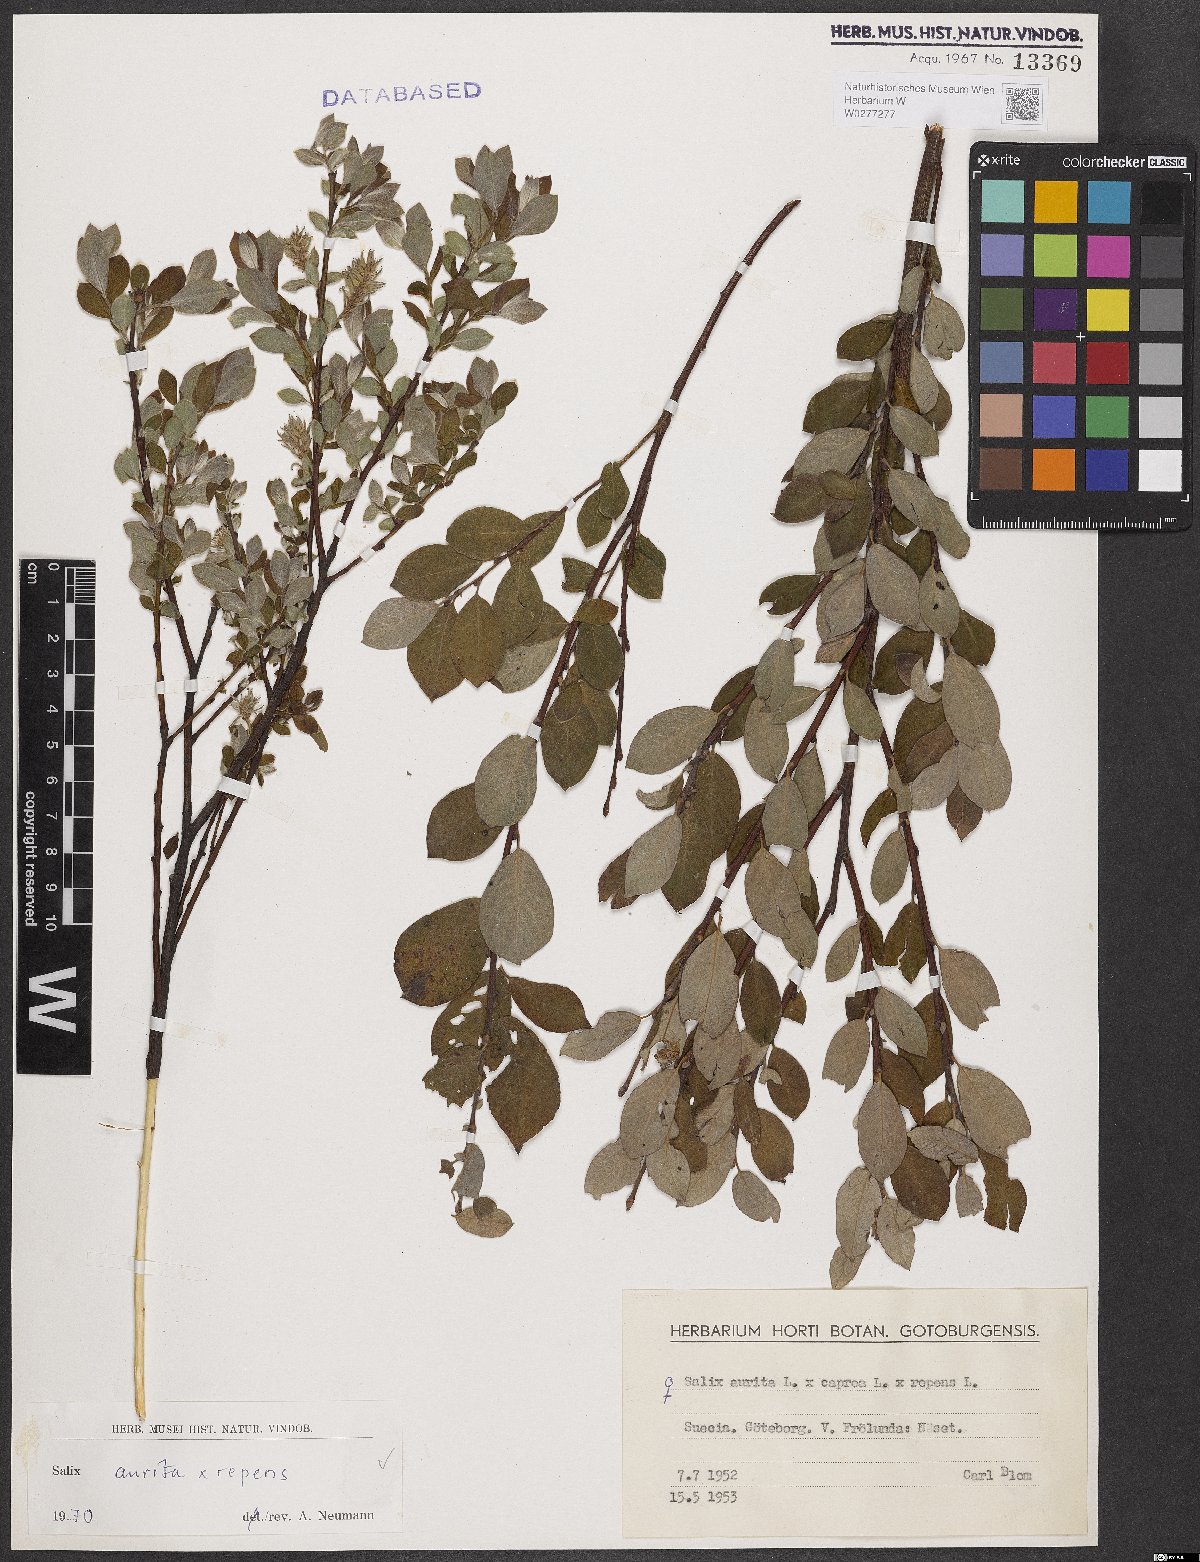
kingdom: Plantae
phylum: Tracheophyta
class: Magnoliopsida
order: Malpighiales
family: Salicaceae
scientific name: Salicaceae
